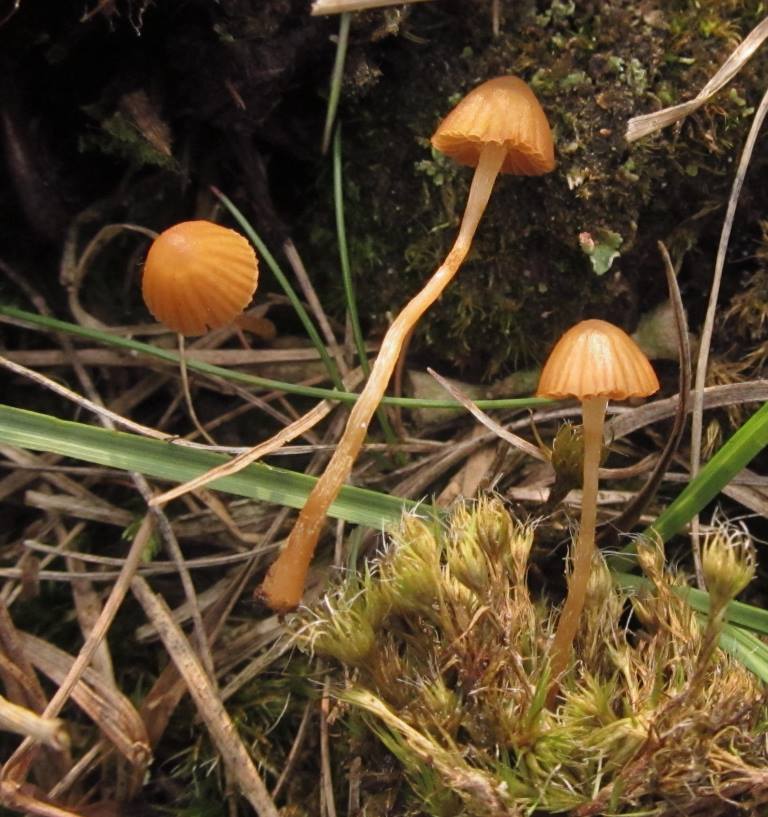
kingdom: Fungi
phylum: Basidiomycota
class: Agaricomycetes
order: Agaricales
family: Hymenogastraceae
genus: Galerina
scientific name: Galerina cerina
